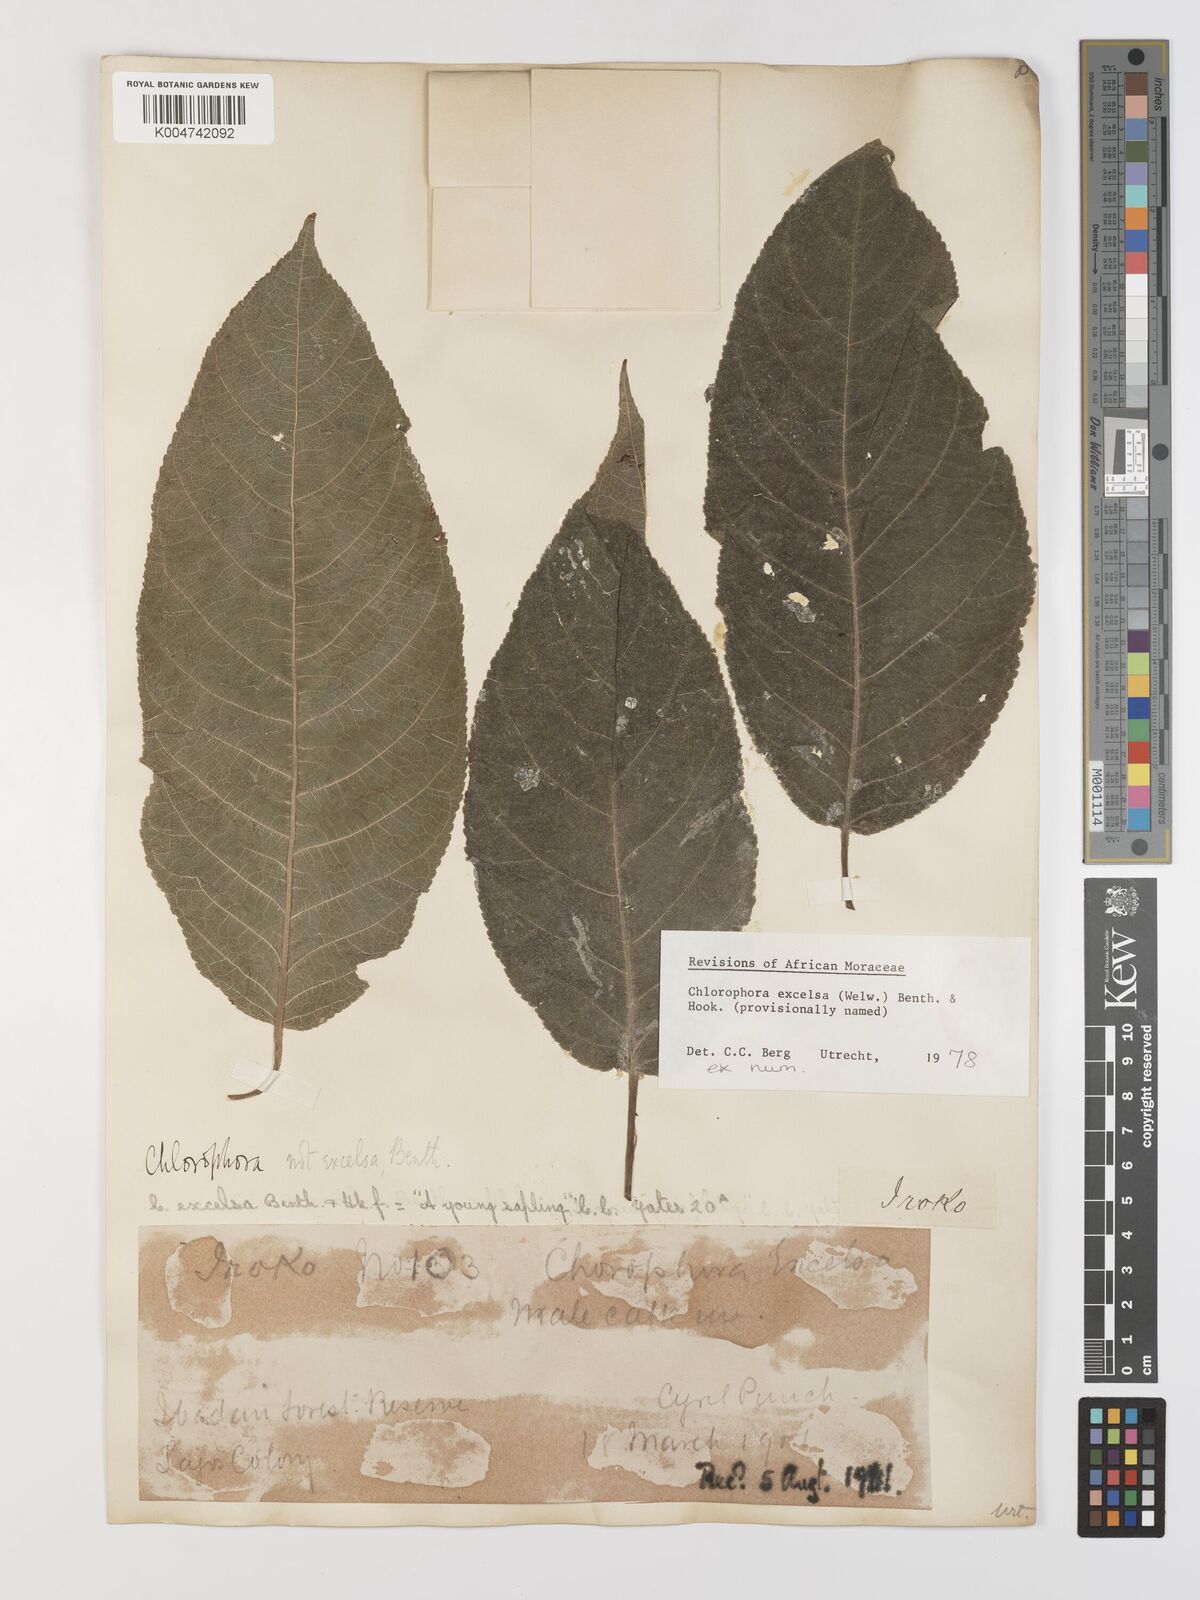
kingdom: Plantae
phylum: Tracheophyta
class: Magnoliopsida
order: Rosales
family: Moraceae
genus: Milicia
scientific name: Milicia excelsa
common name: African teak
